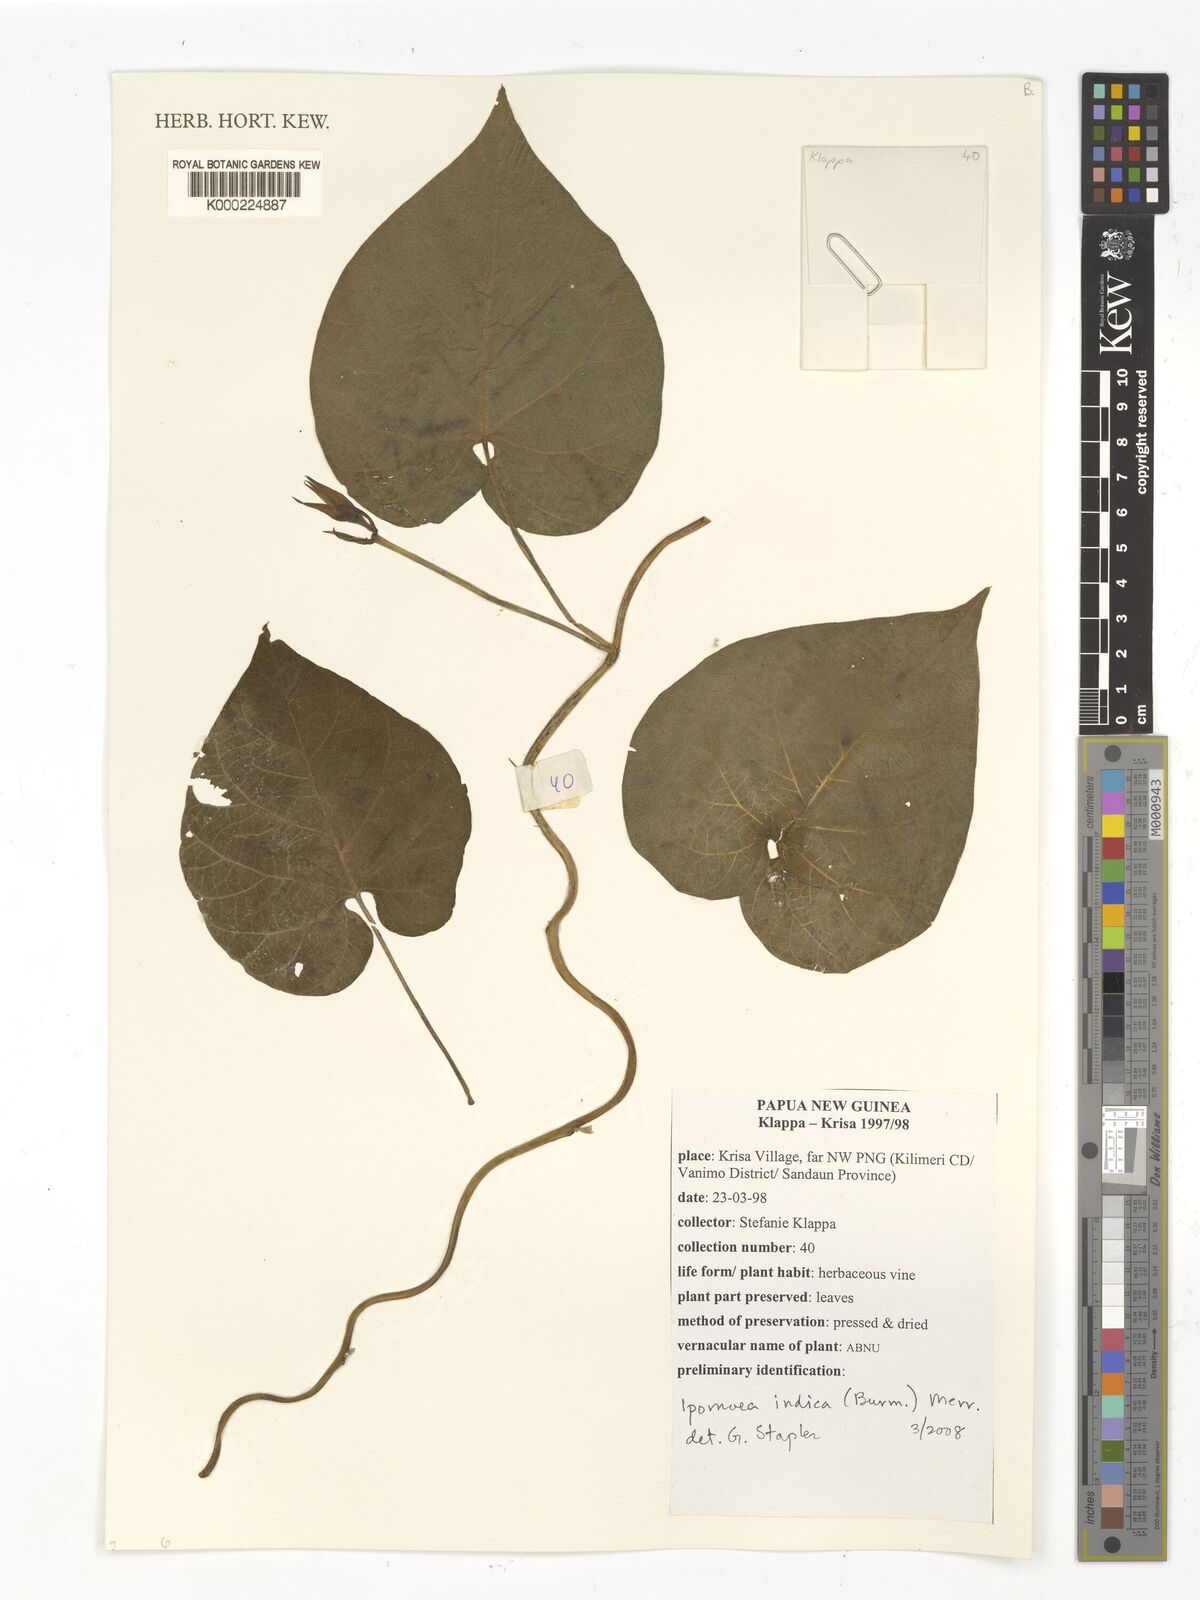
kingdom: Plantae
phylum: Tracheophyta
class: Magnoliopsida
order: Solanales
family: Convolvulaceae
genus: Ipomoea
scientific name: Ipomoea indica
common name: Blue dawnflower
